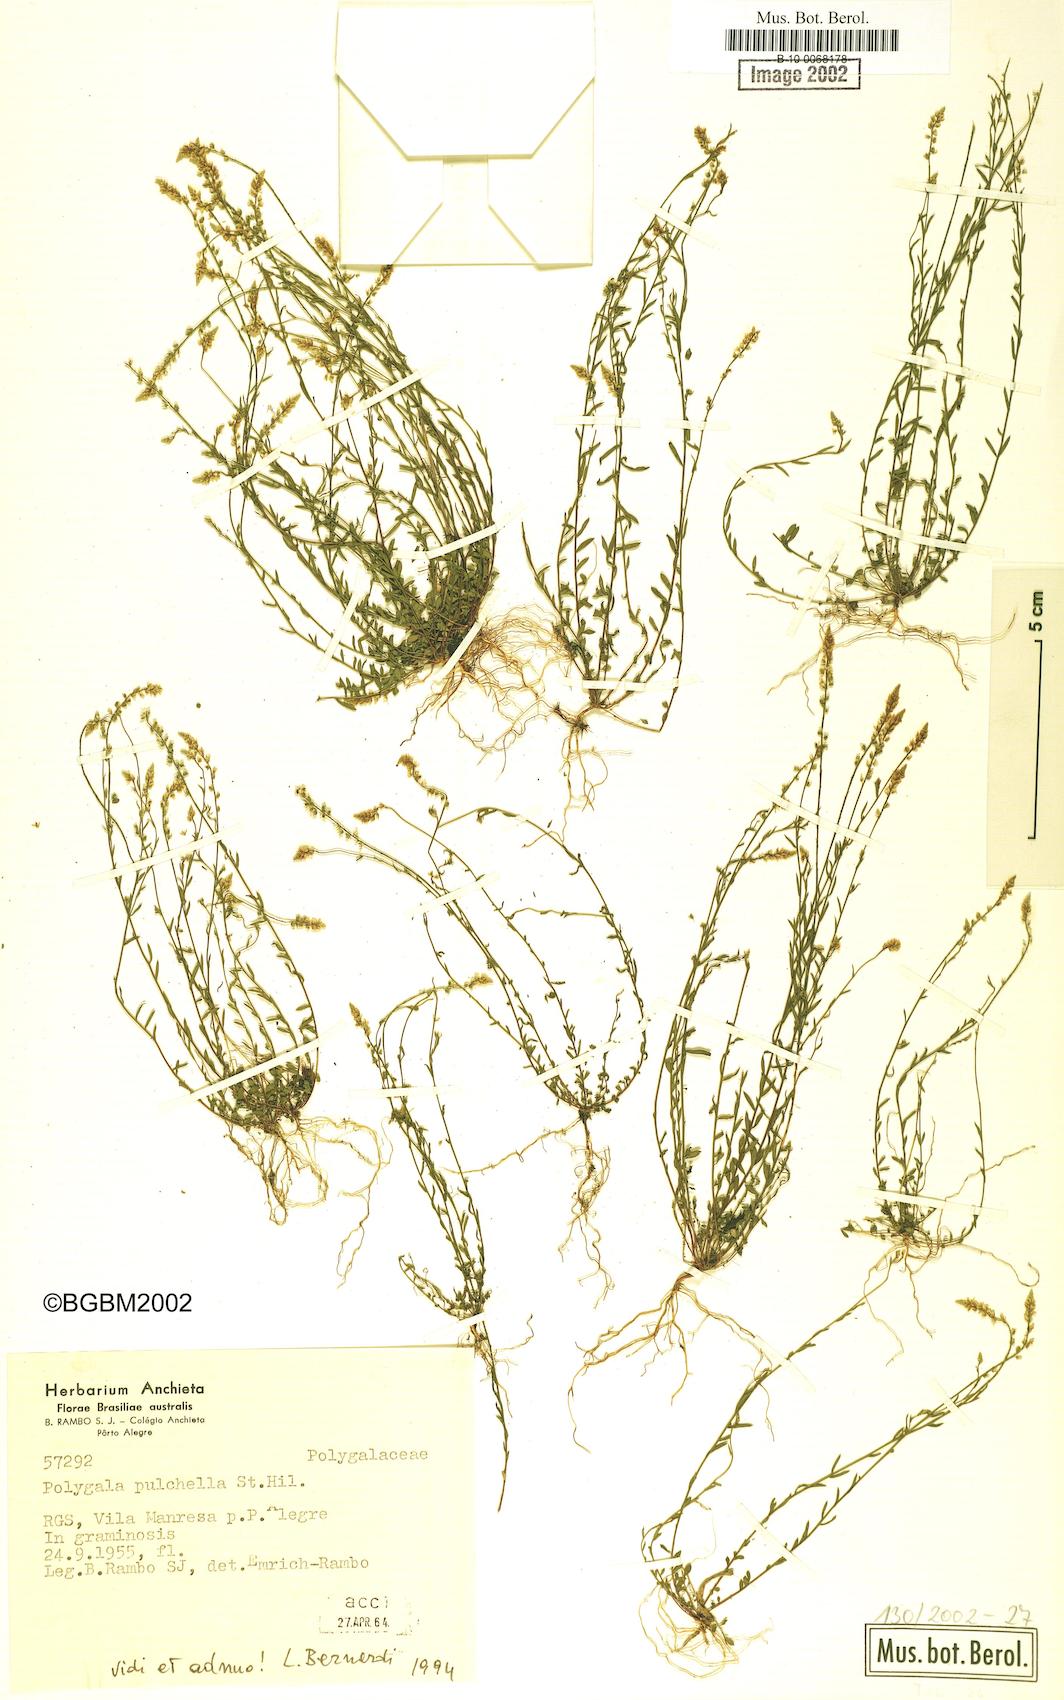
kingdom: Plantae
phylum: Tracheophyta
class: Magnoliopsida
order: Fabales
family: Polygalaceae
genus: Polygala
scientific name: Polygala pulchella
